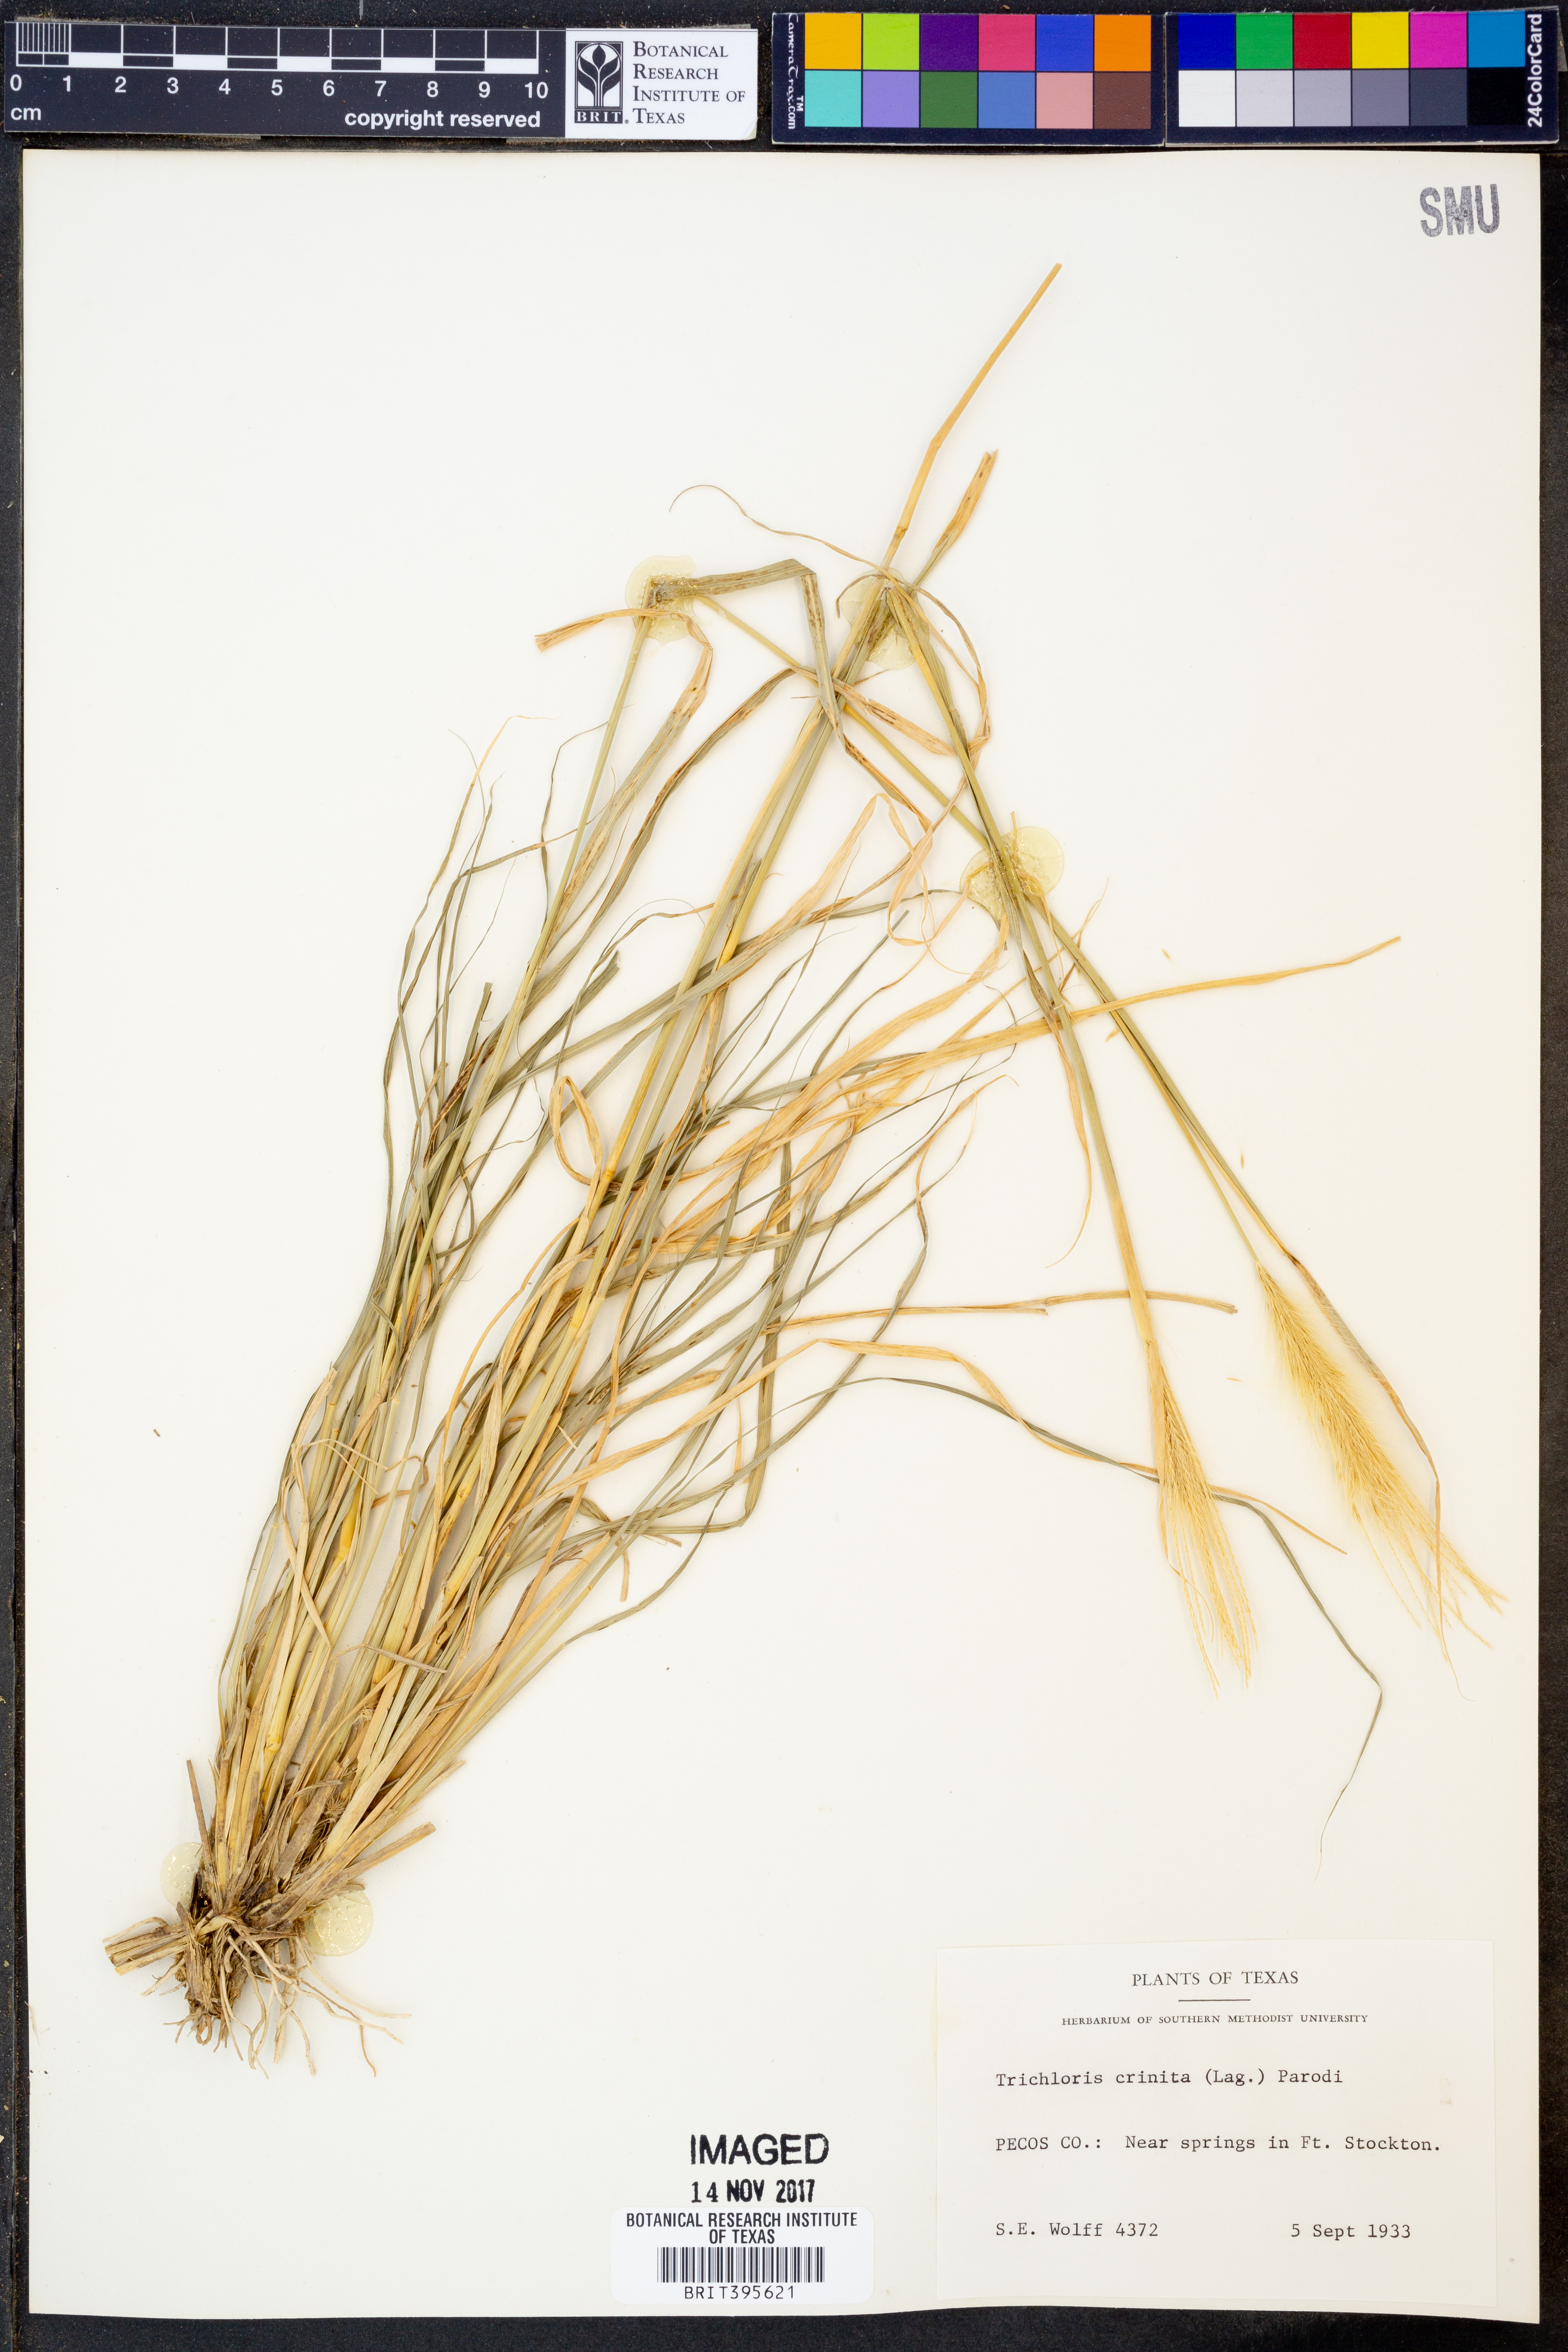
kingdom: Plantae
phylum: Tracheophyta
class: Liliopsida
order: Poales
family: Poaceae
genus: Leptochloa
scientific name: Leptochloa crinita
